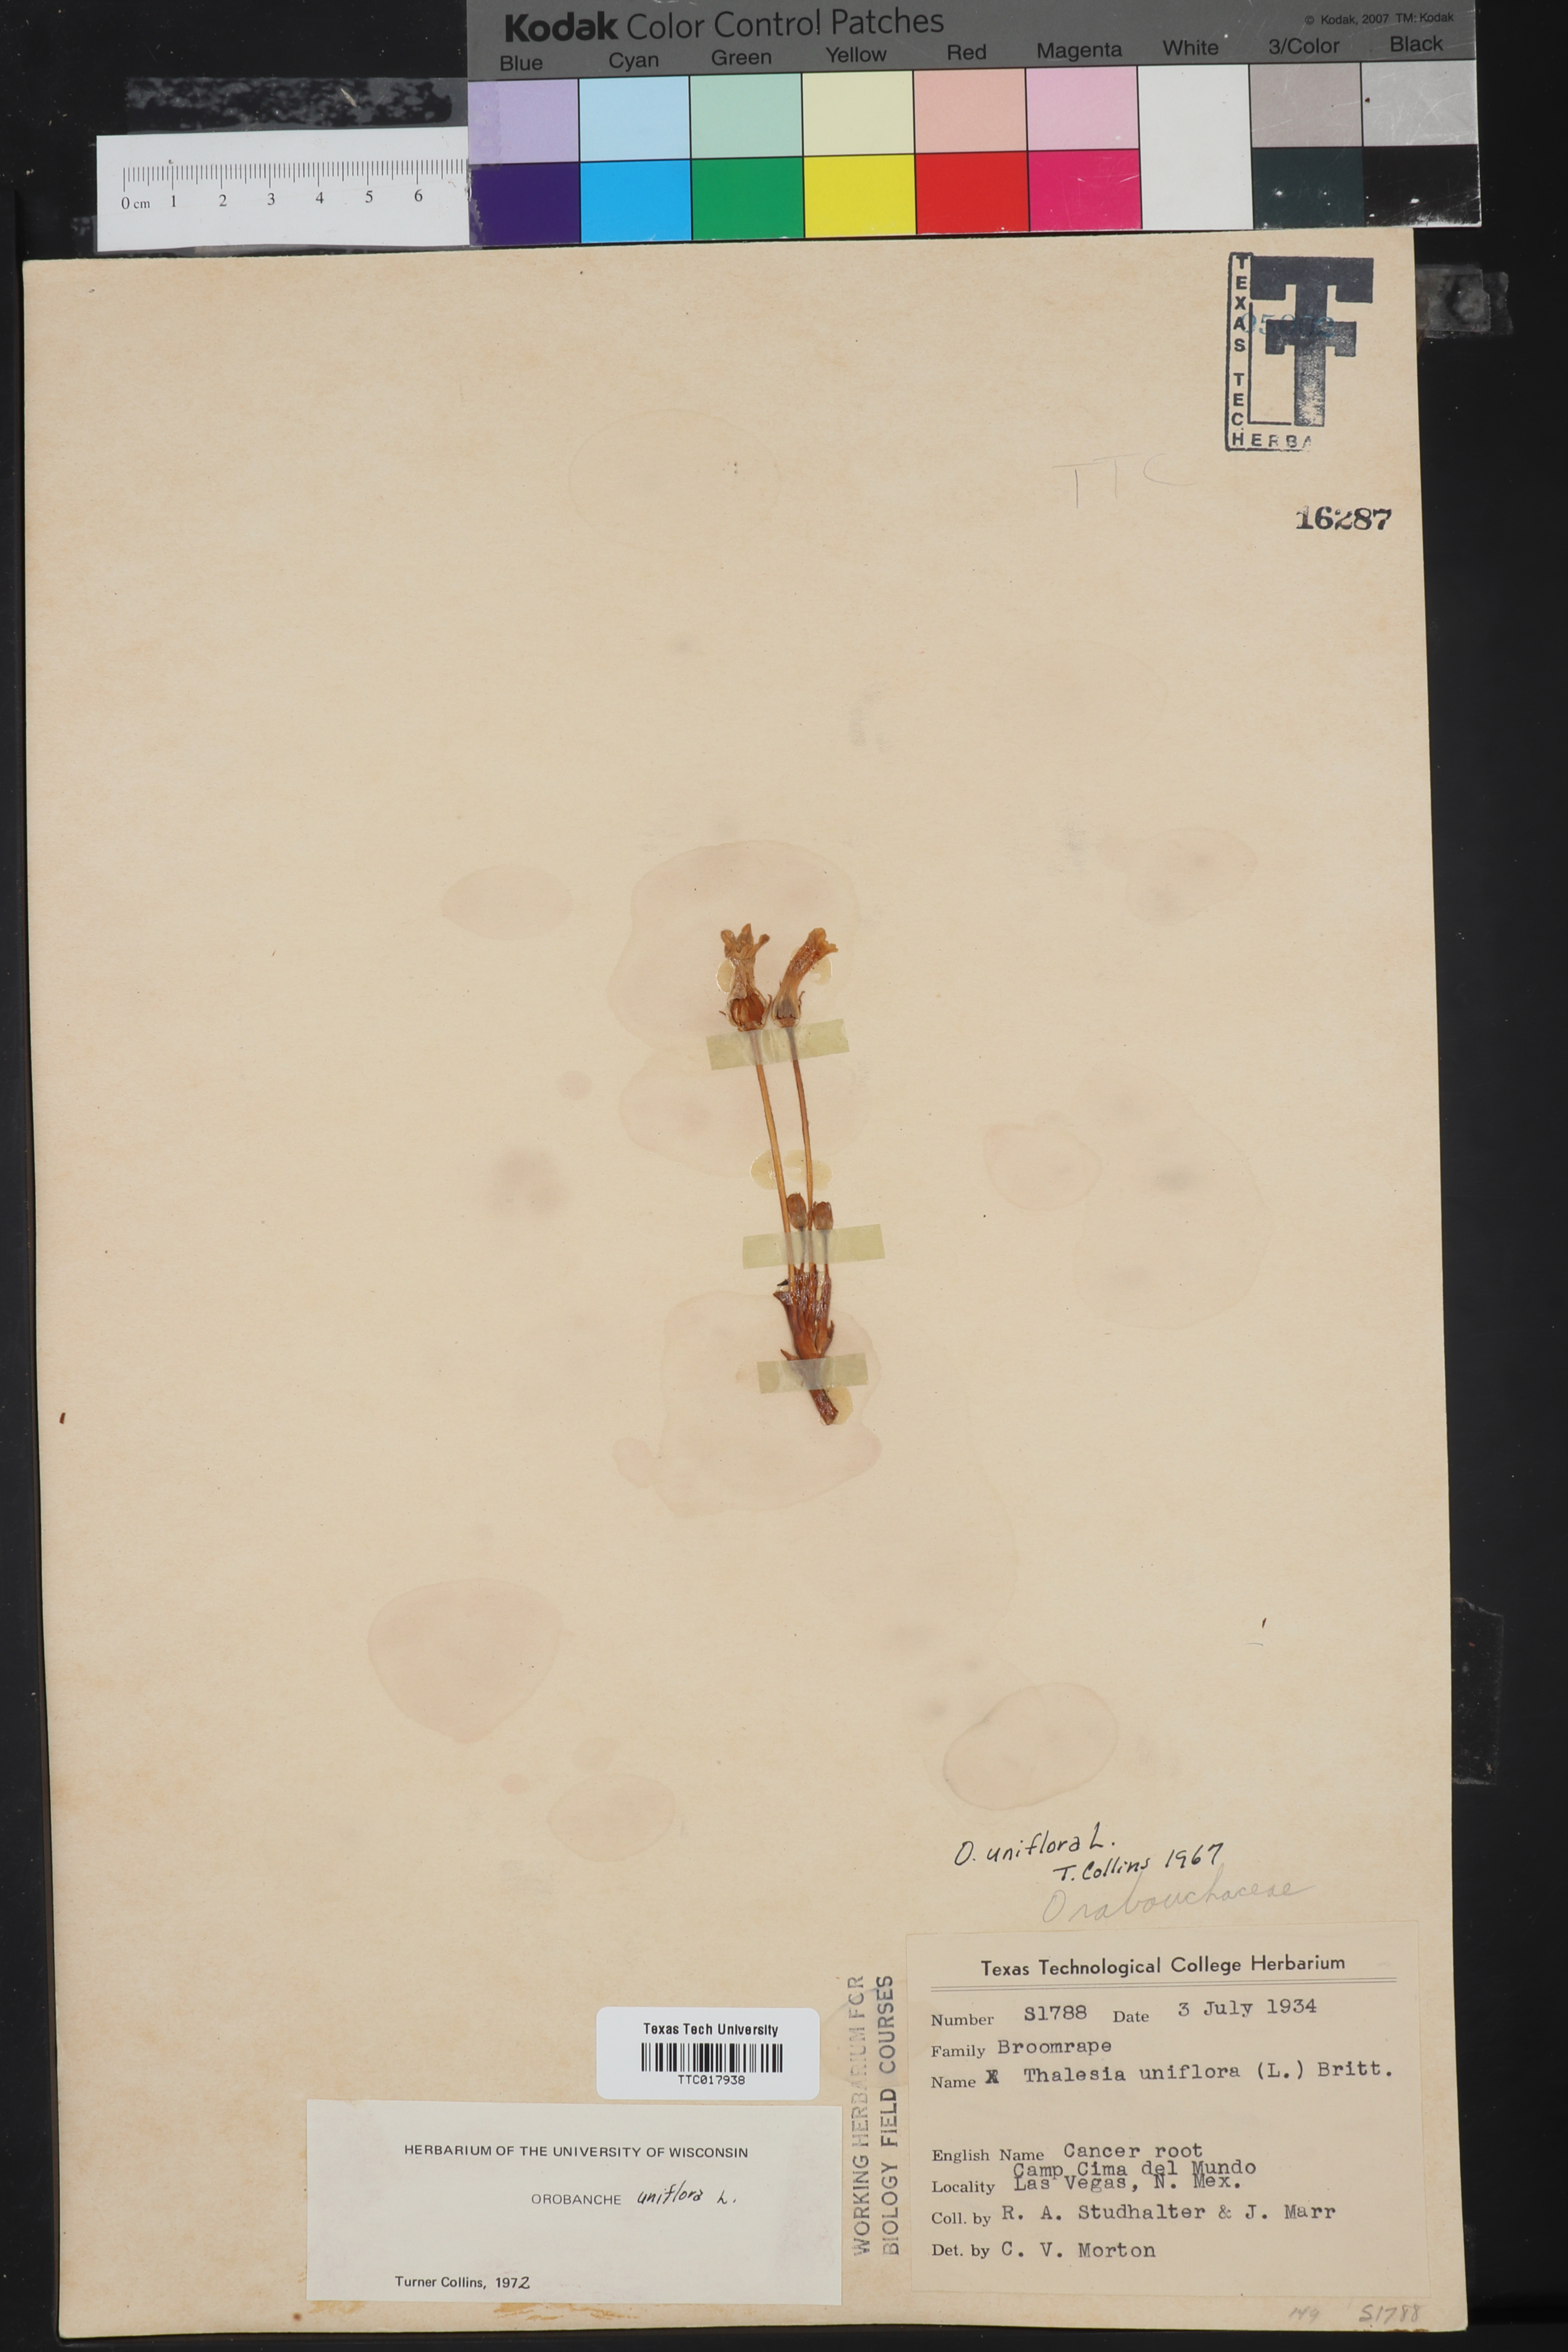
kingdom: Plantae
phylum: Tracheophyta
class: Magnoliopsida
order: Lamiales
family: Orobanchaceae
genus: Aphyllon
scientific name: Aphyllon uniflorum
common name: One-flowered broomrape
